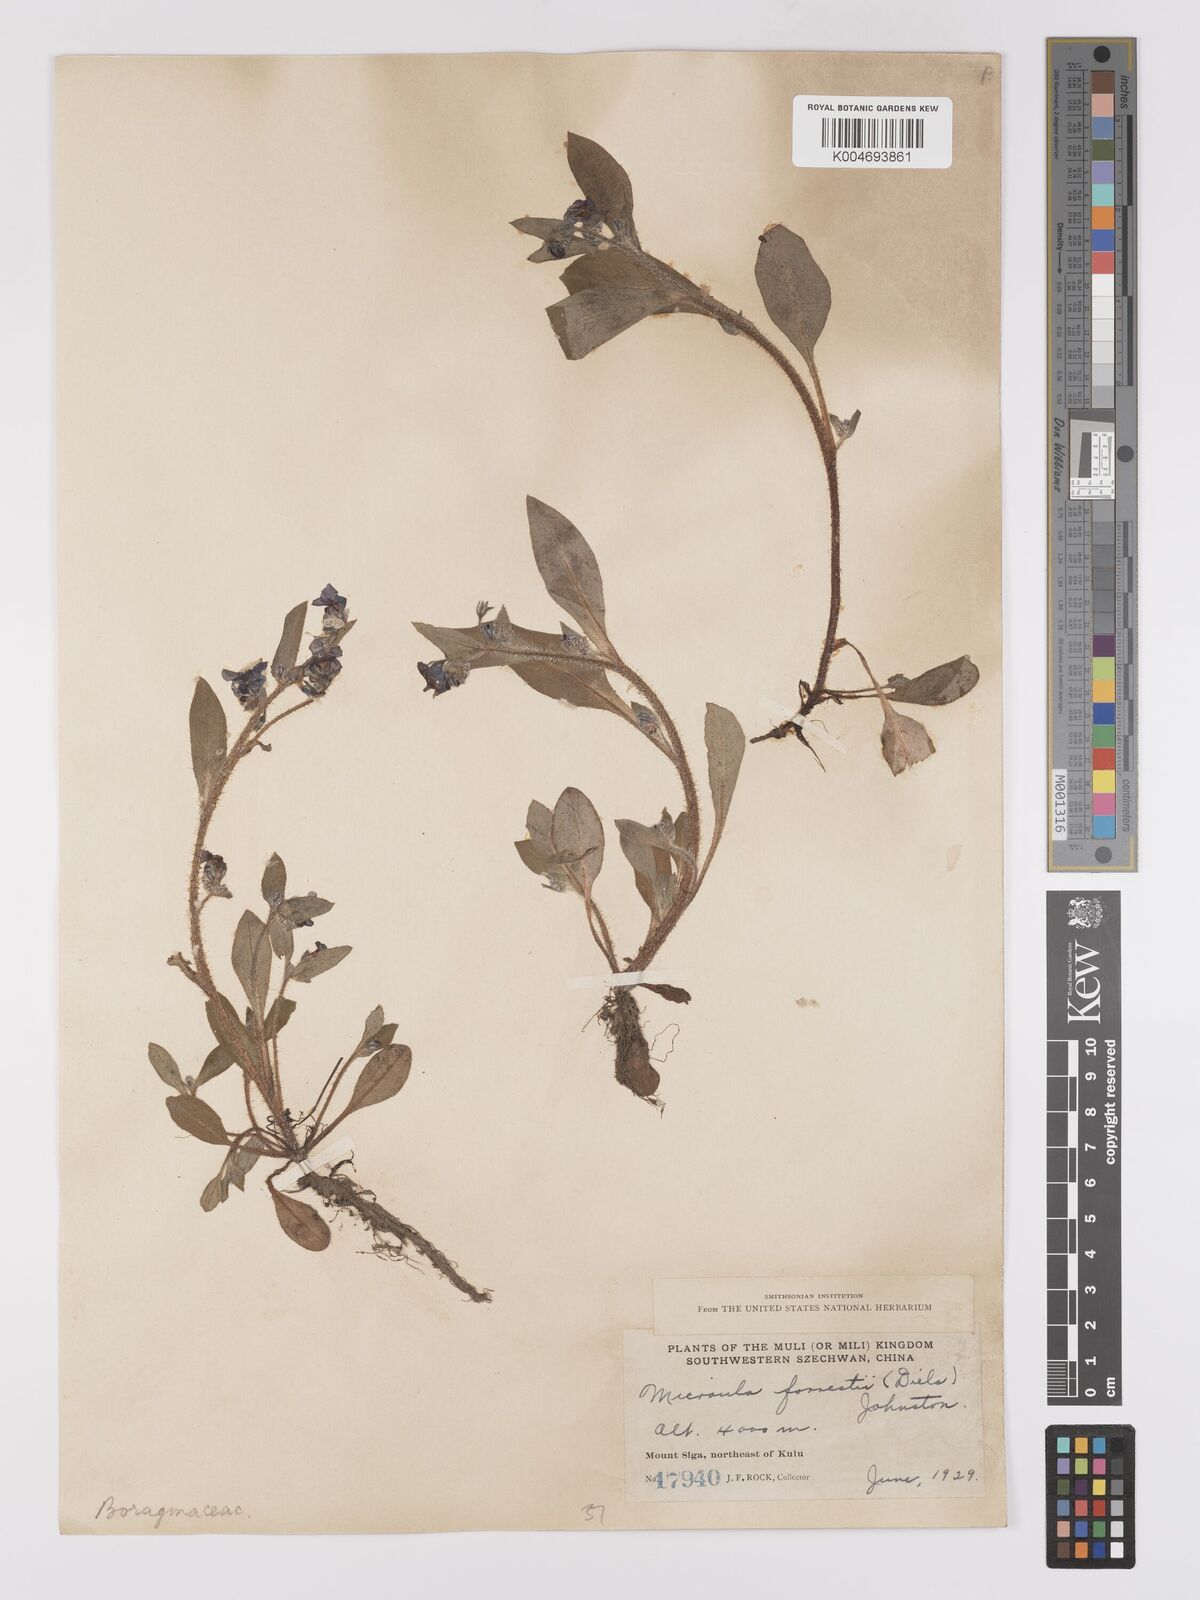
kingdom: Plantae
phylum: Tracheophyta
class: Magnoliopsida
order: Boraginales
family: Boraginaceae
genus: Microula
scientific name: Microula forrestii
